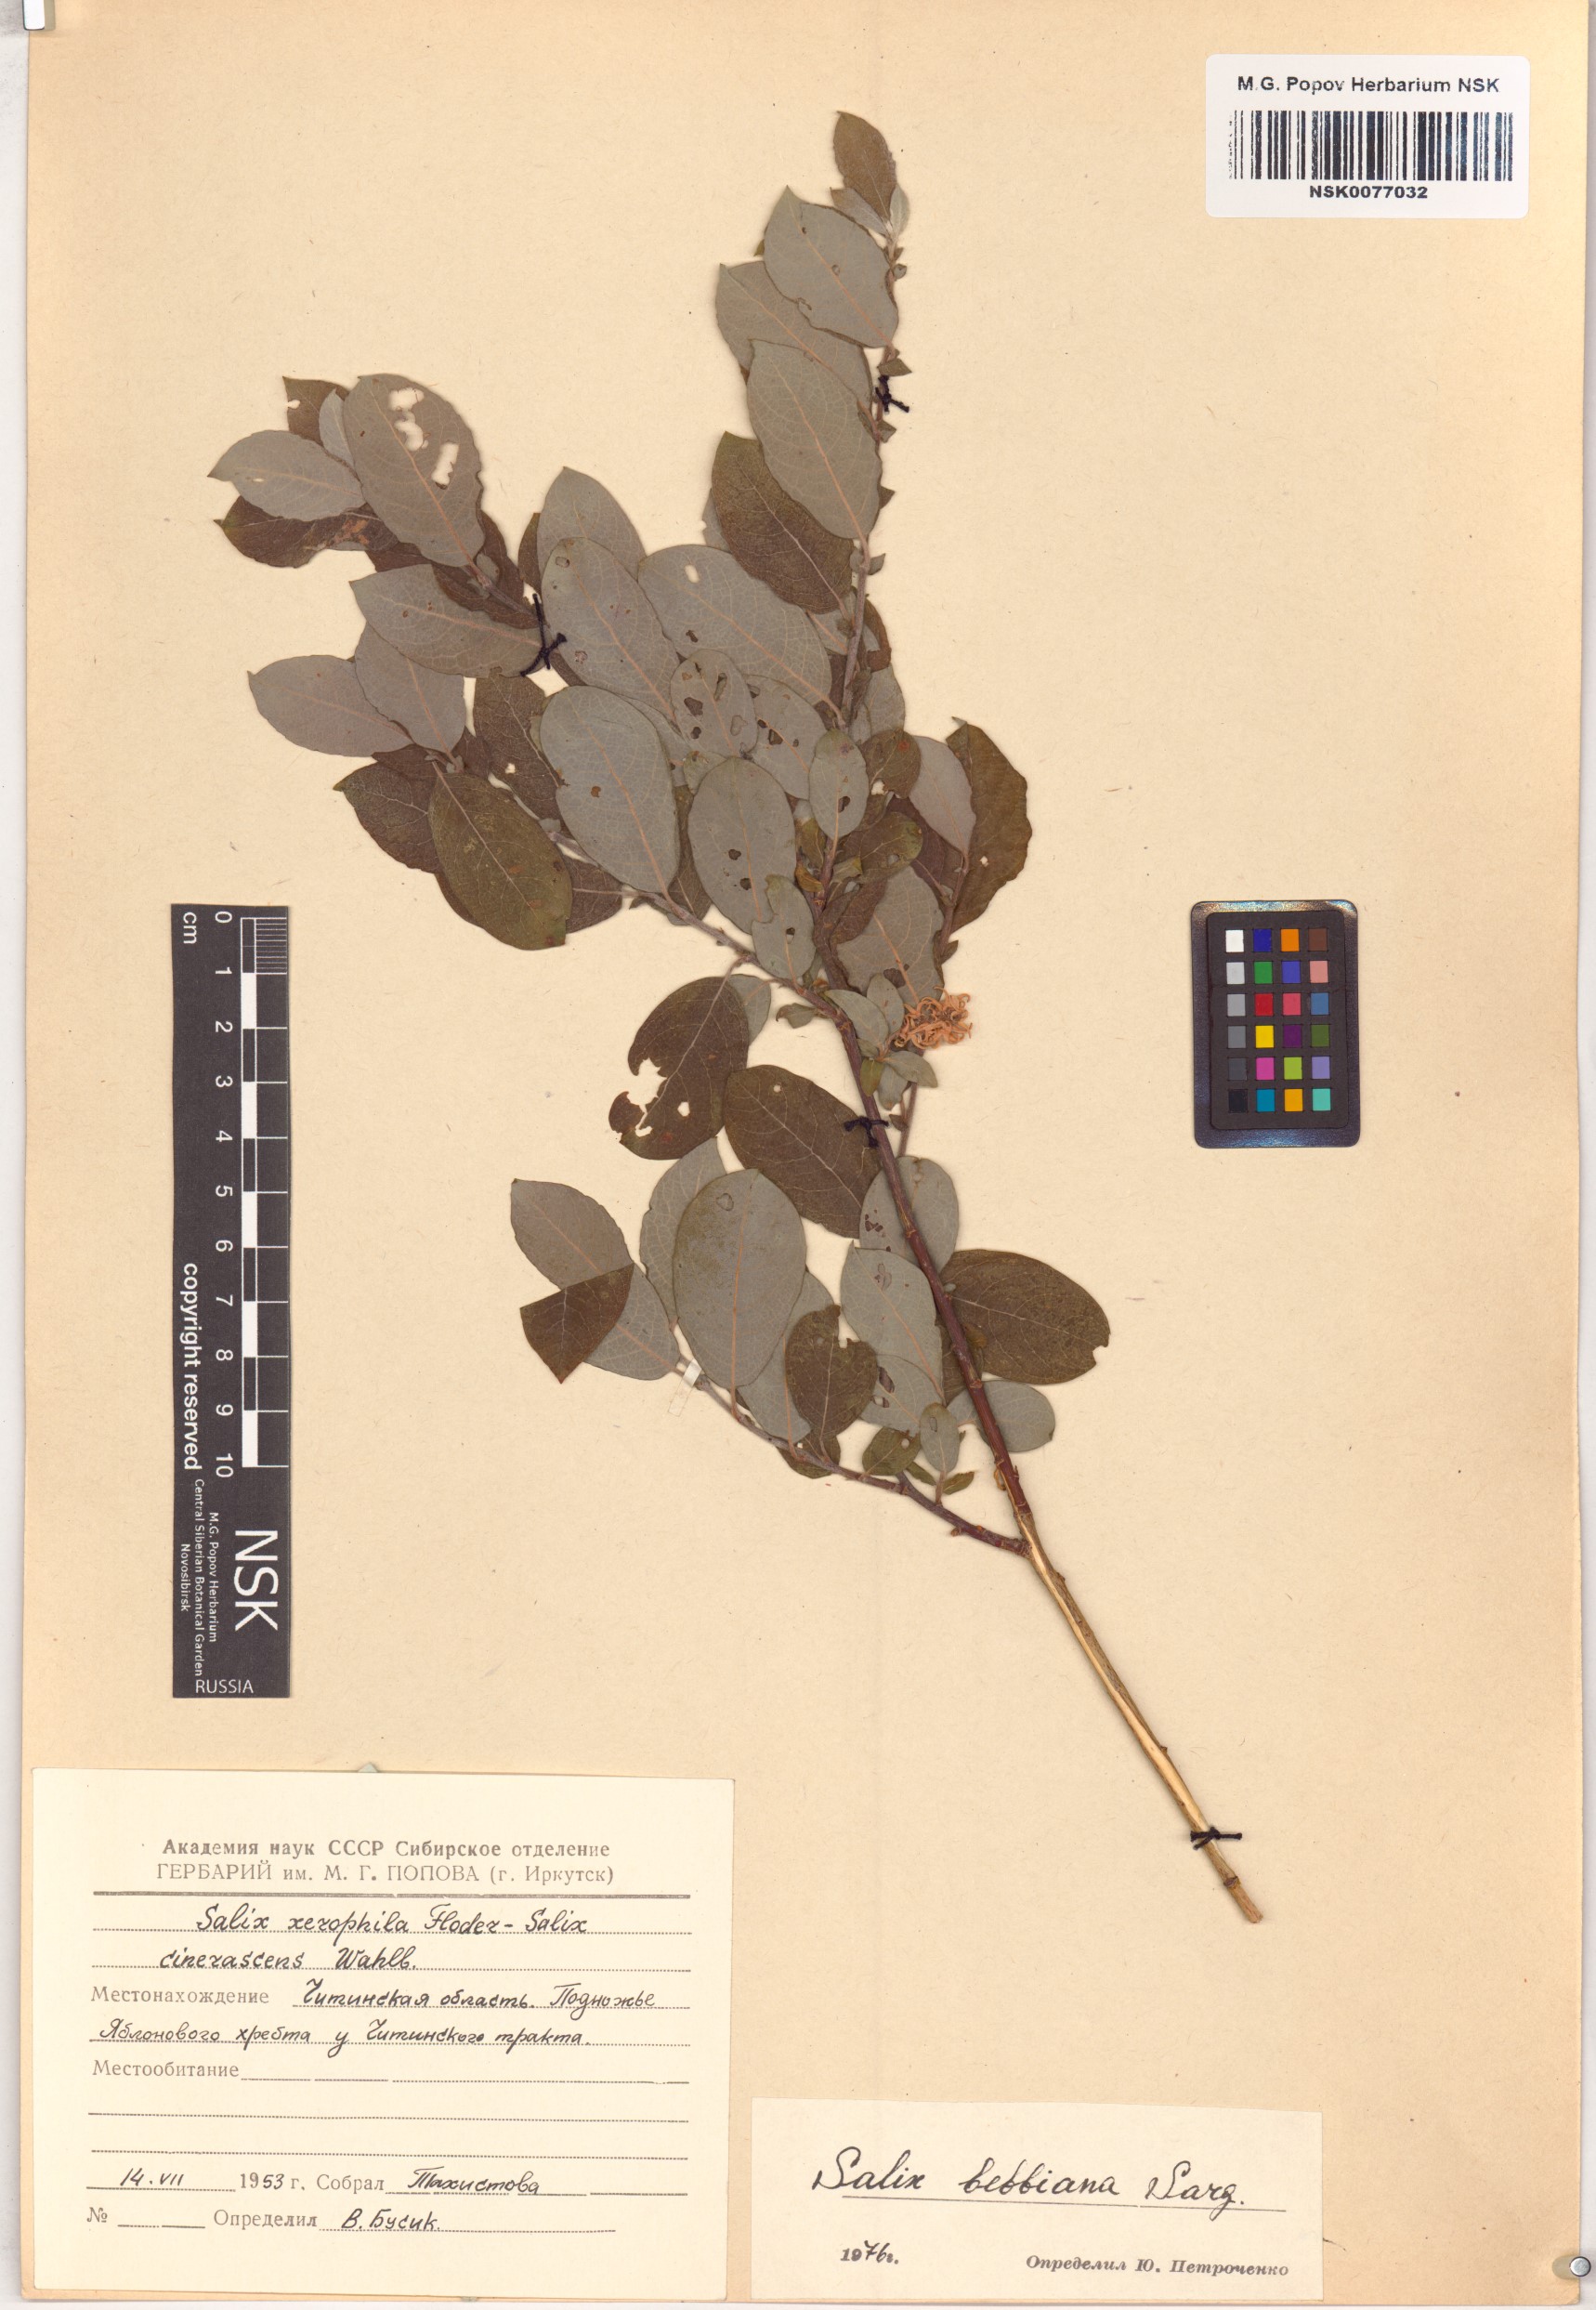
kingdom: Plantae
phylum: Tracheophyta
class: Magnoliopsida
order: Malpighiales
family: Salicaceae
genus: Salix
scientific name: Salix bebbiana
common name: Bebb's willow
